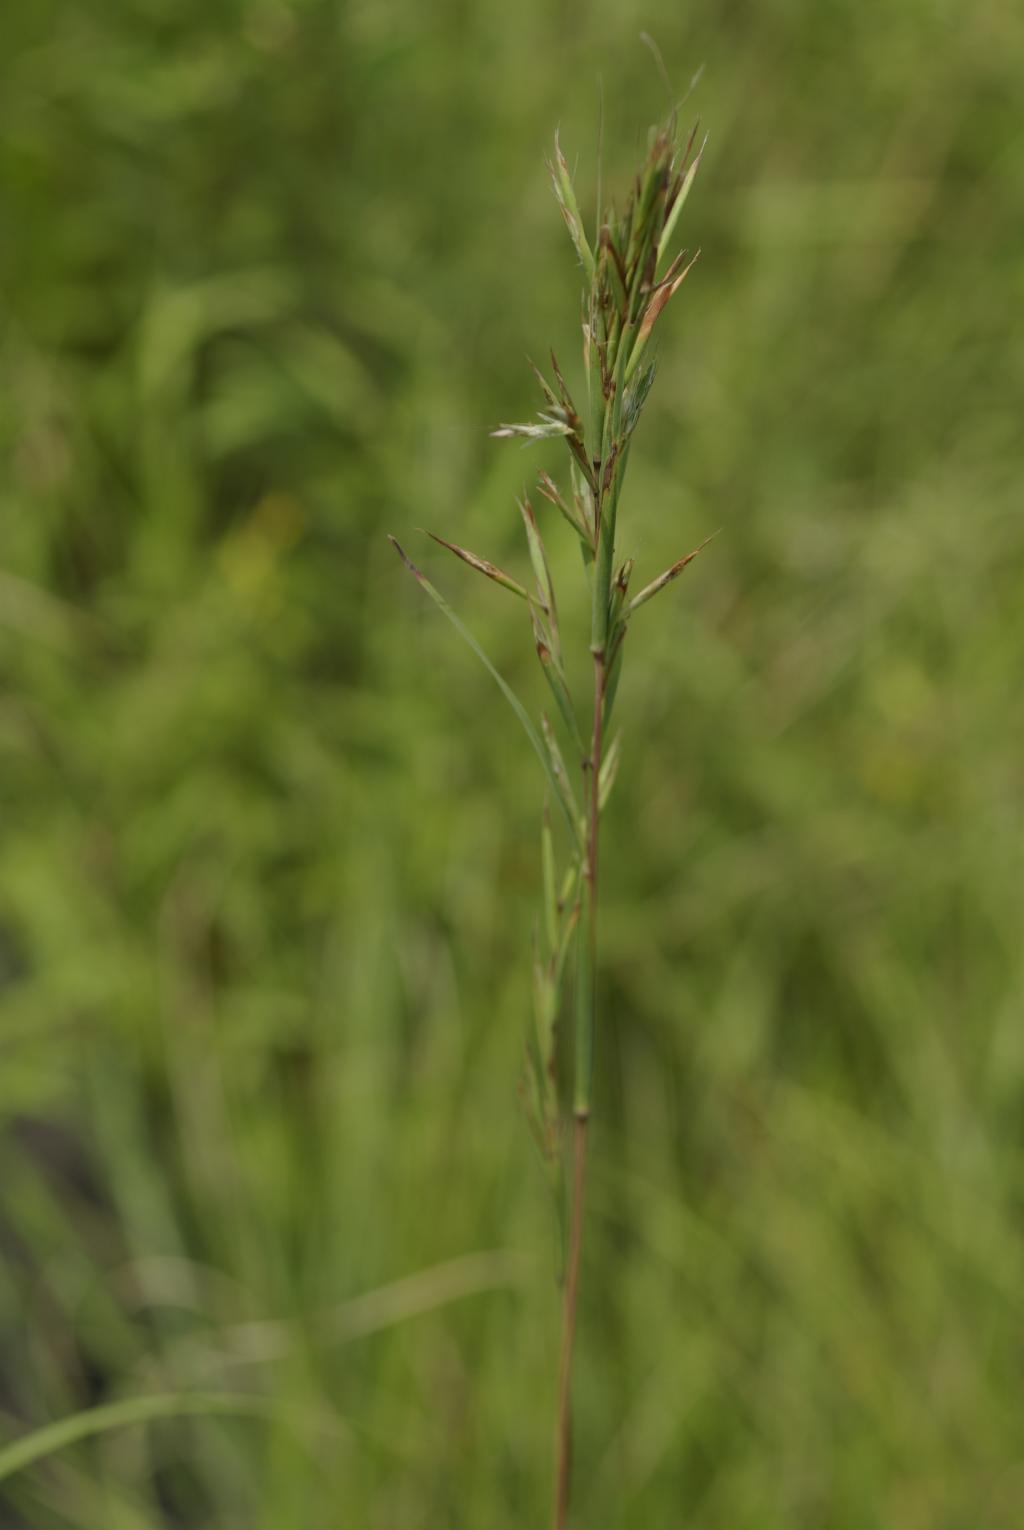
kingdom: Plantae
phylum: Tracheophyta
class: Liliopsida
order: Poales
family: Poaceae
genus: Cymbopogon
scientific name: Cymbopogon tortilis
